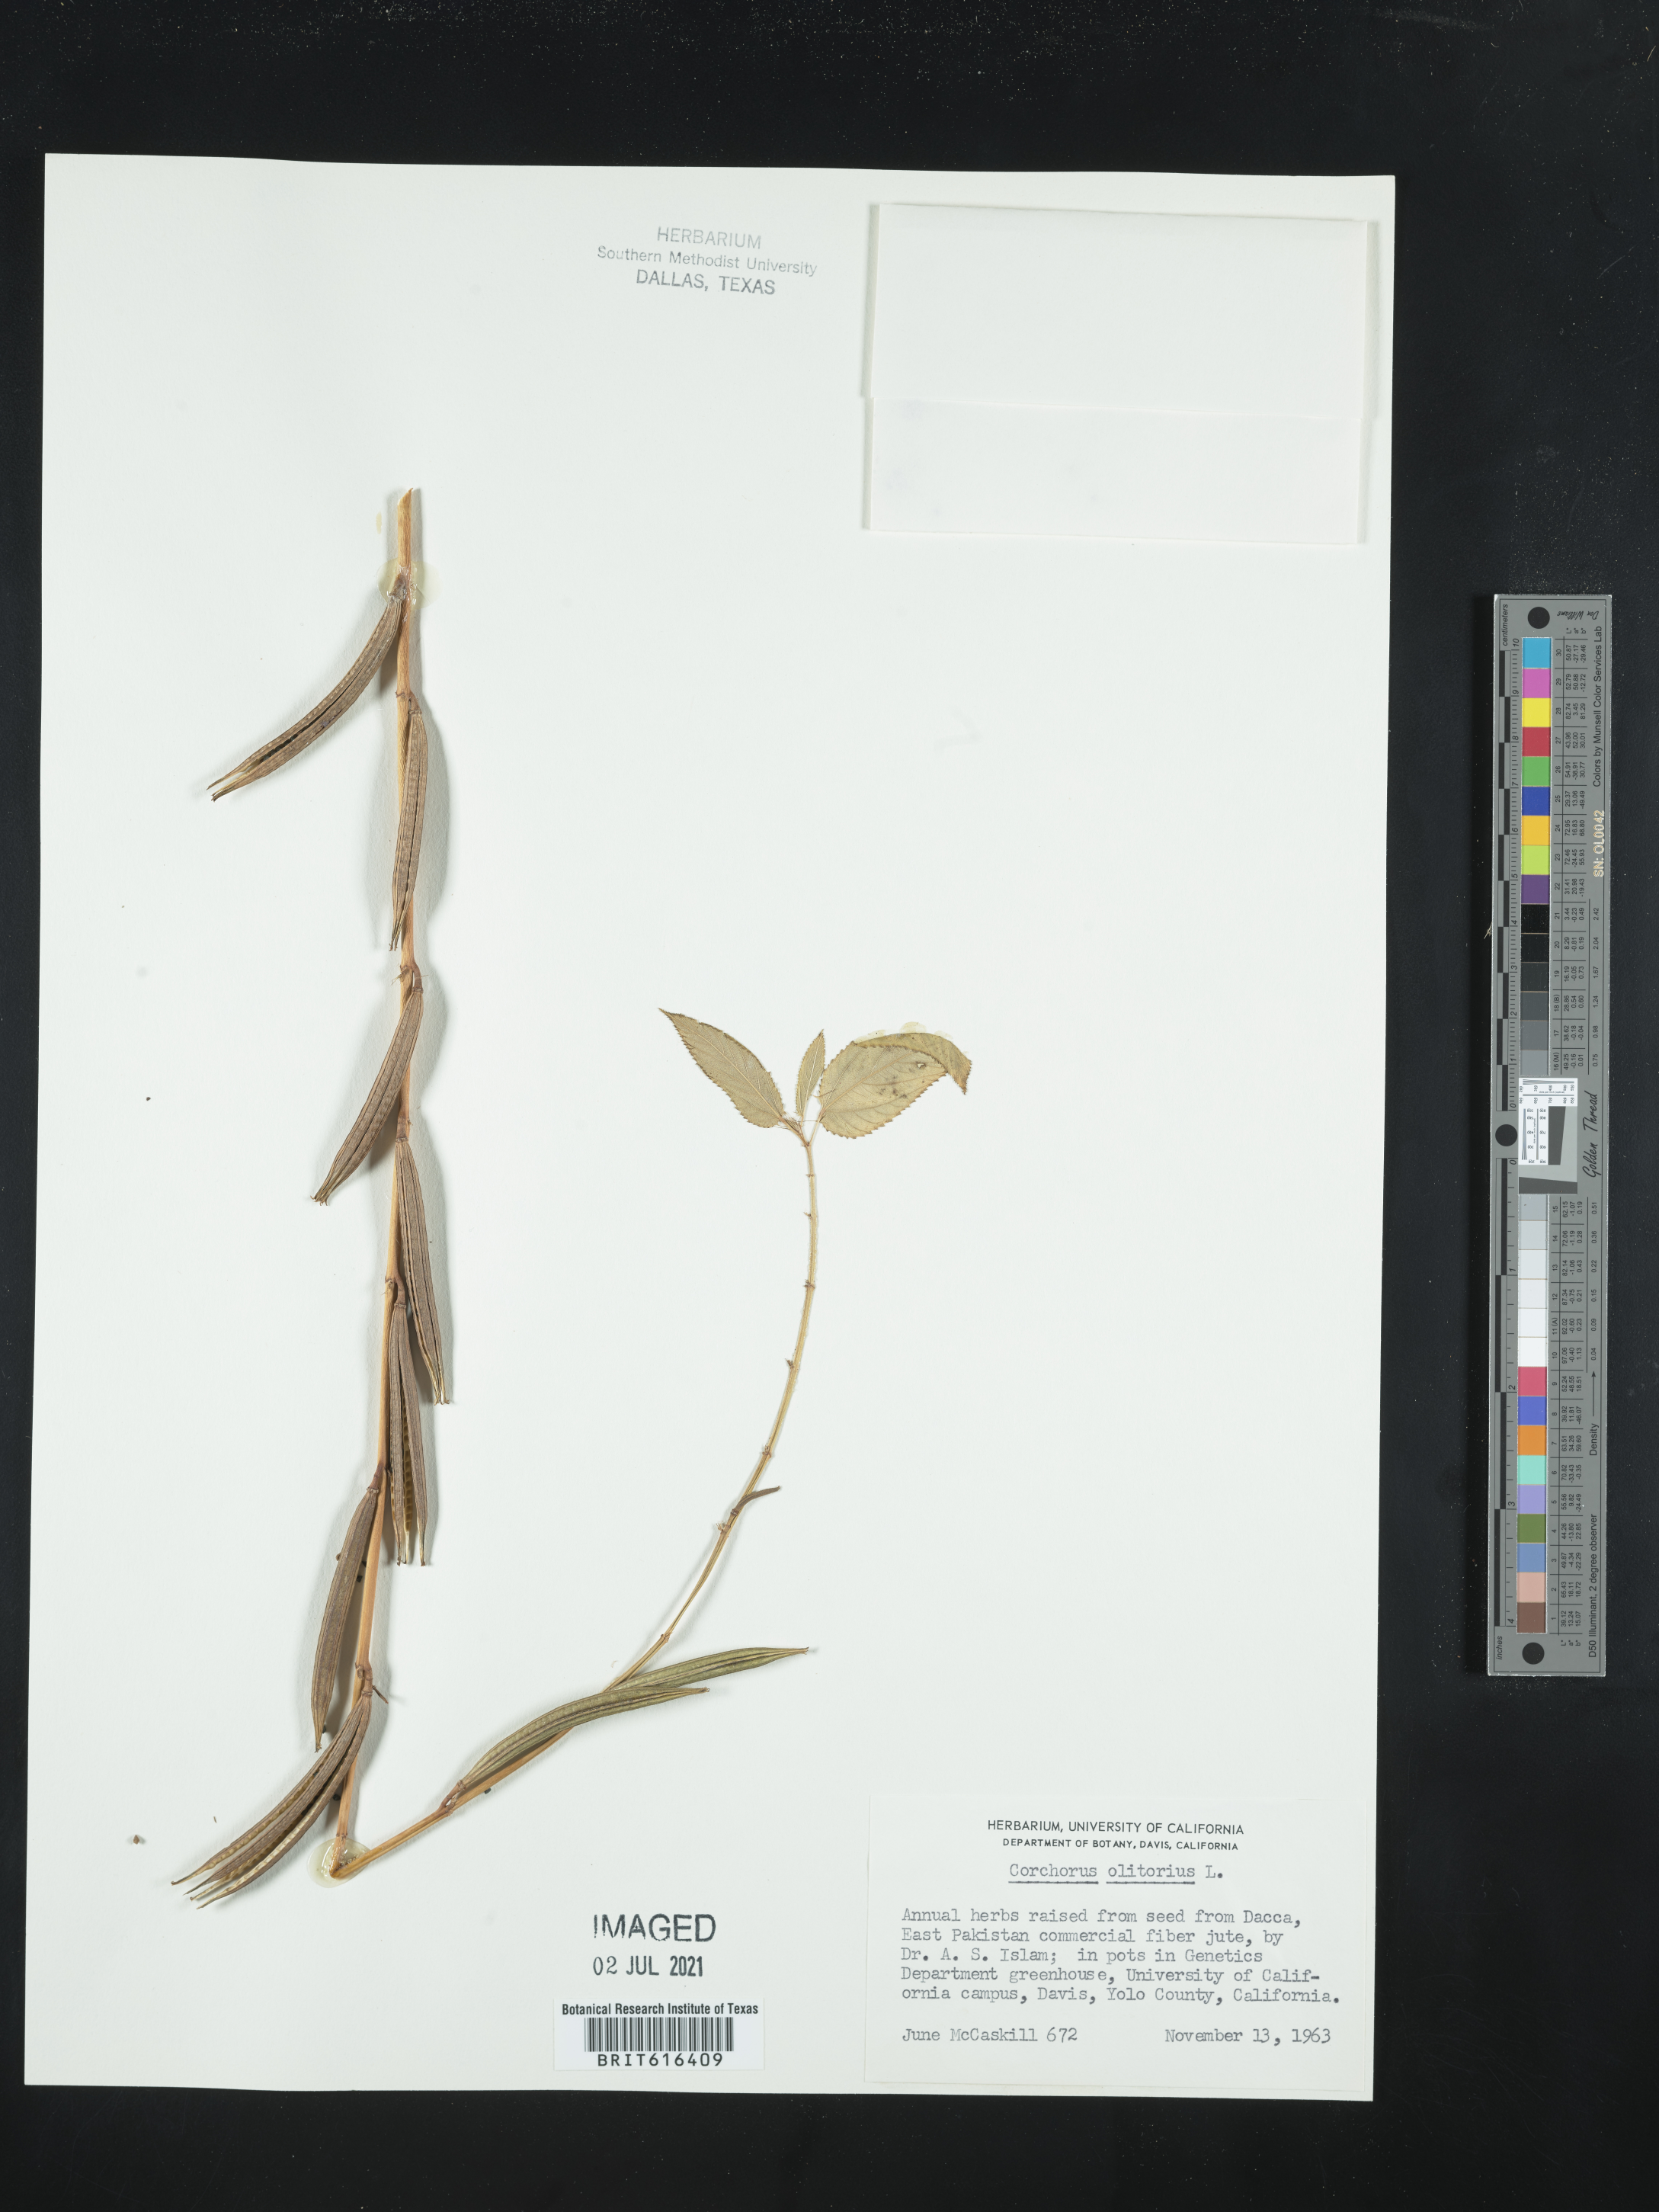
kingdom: Plantae
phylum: Tracheophyta
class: Magnoliopsida
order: Malvales
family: Malvaceae
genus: Corchorus
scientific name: Corchorus olitorius
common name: Tossa jute
